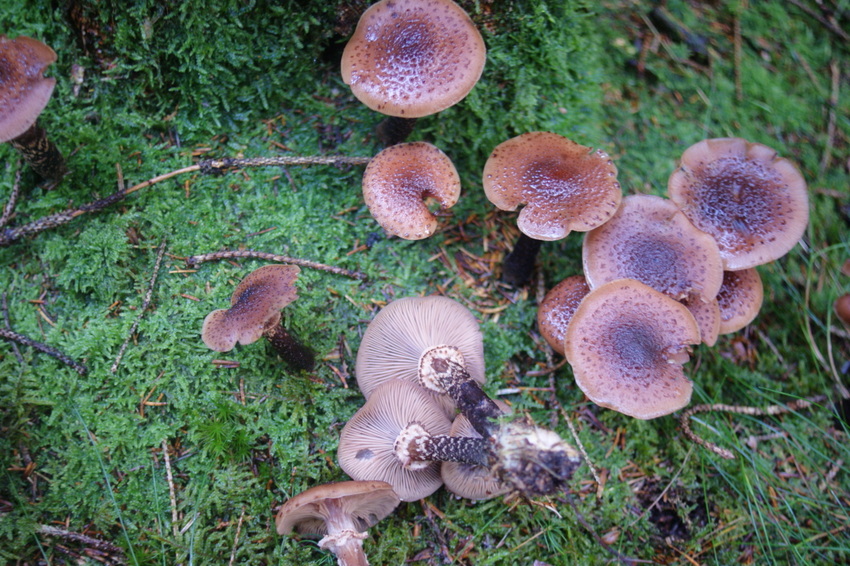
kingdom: Fungi
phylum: Basidiomycota
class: Agaricomycetes
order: Agaricales
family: Physalacriaceae
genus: Armillaria
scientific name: Armillaria ostoyae
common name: mørk honningsvamp
